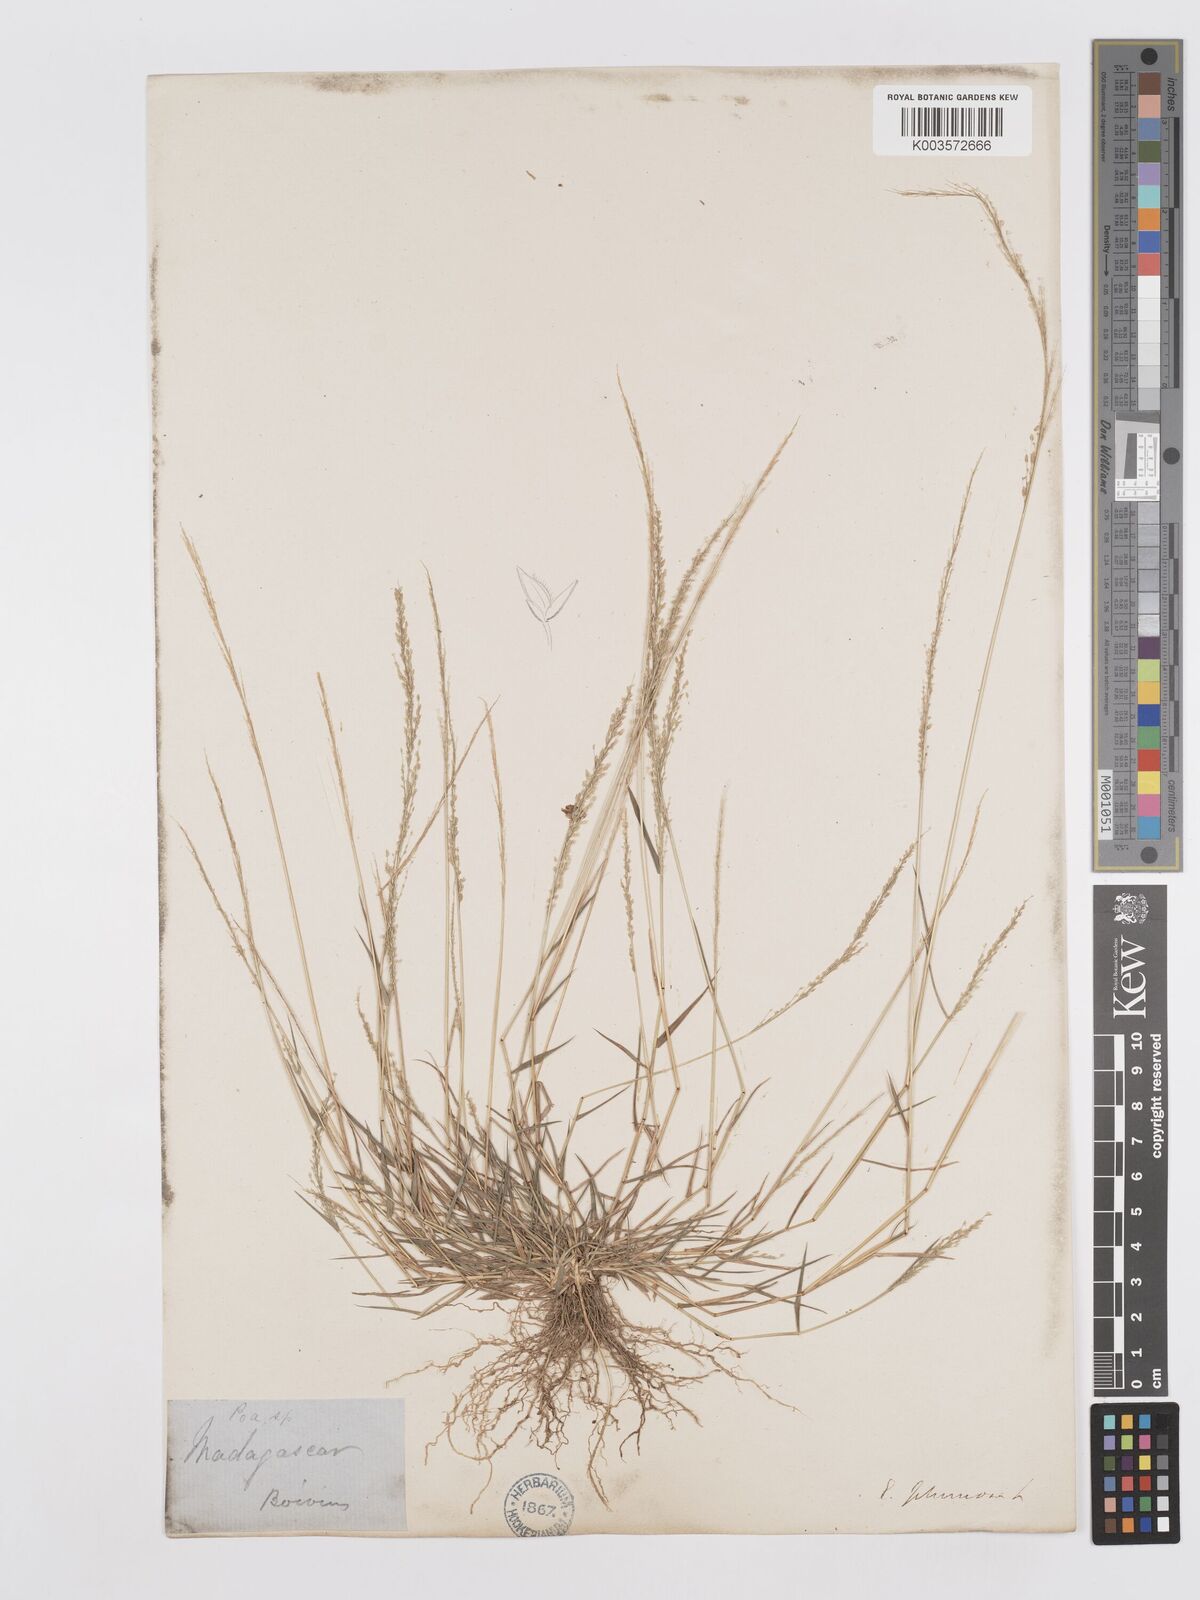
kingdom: Plantae
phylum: Tracheophyta
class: Liliopsida
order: Poales
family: Poaceae
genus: Eragrostis
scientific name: Eragrostis tenella
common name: Japanese lovegrass
